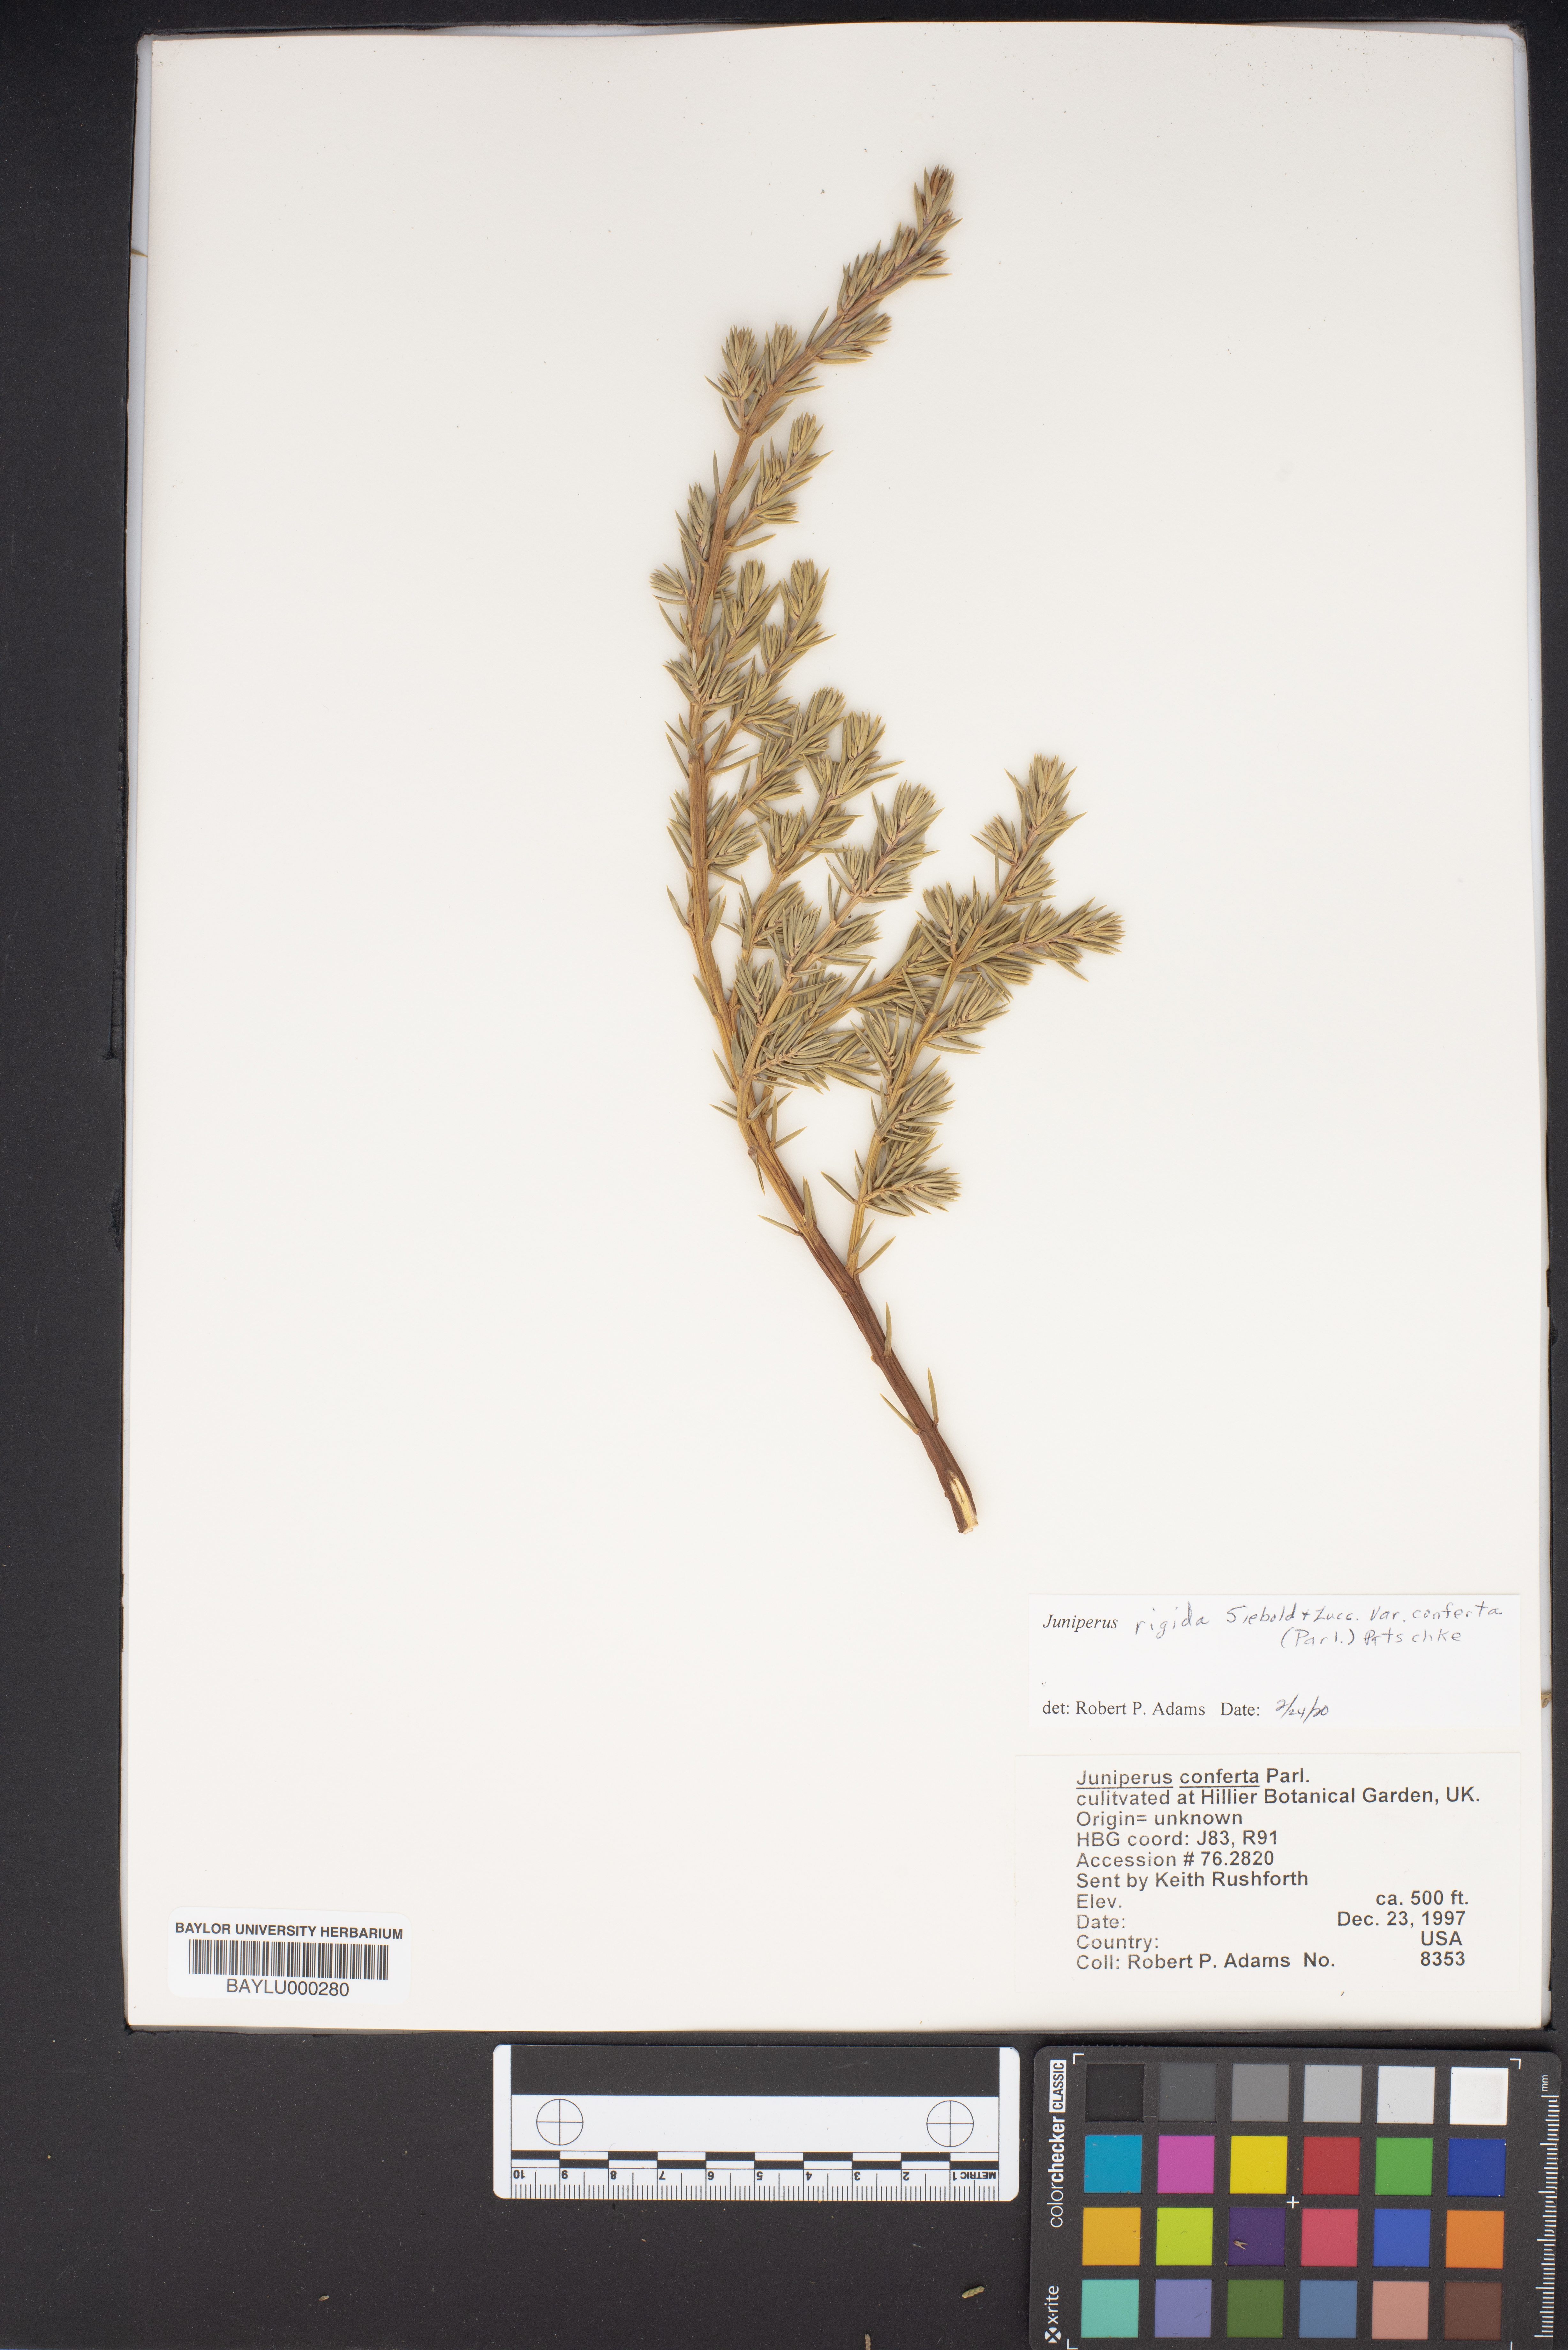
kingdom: Plantae
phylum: Tracheophyta
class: Pinopsida
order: Pinales
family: Cupressaceae
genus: Juniperus
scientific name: Juniperus rigida
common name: Needle juniper
